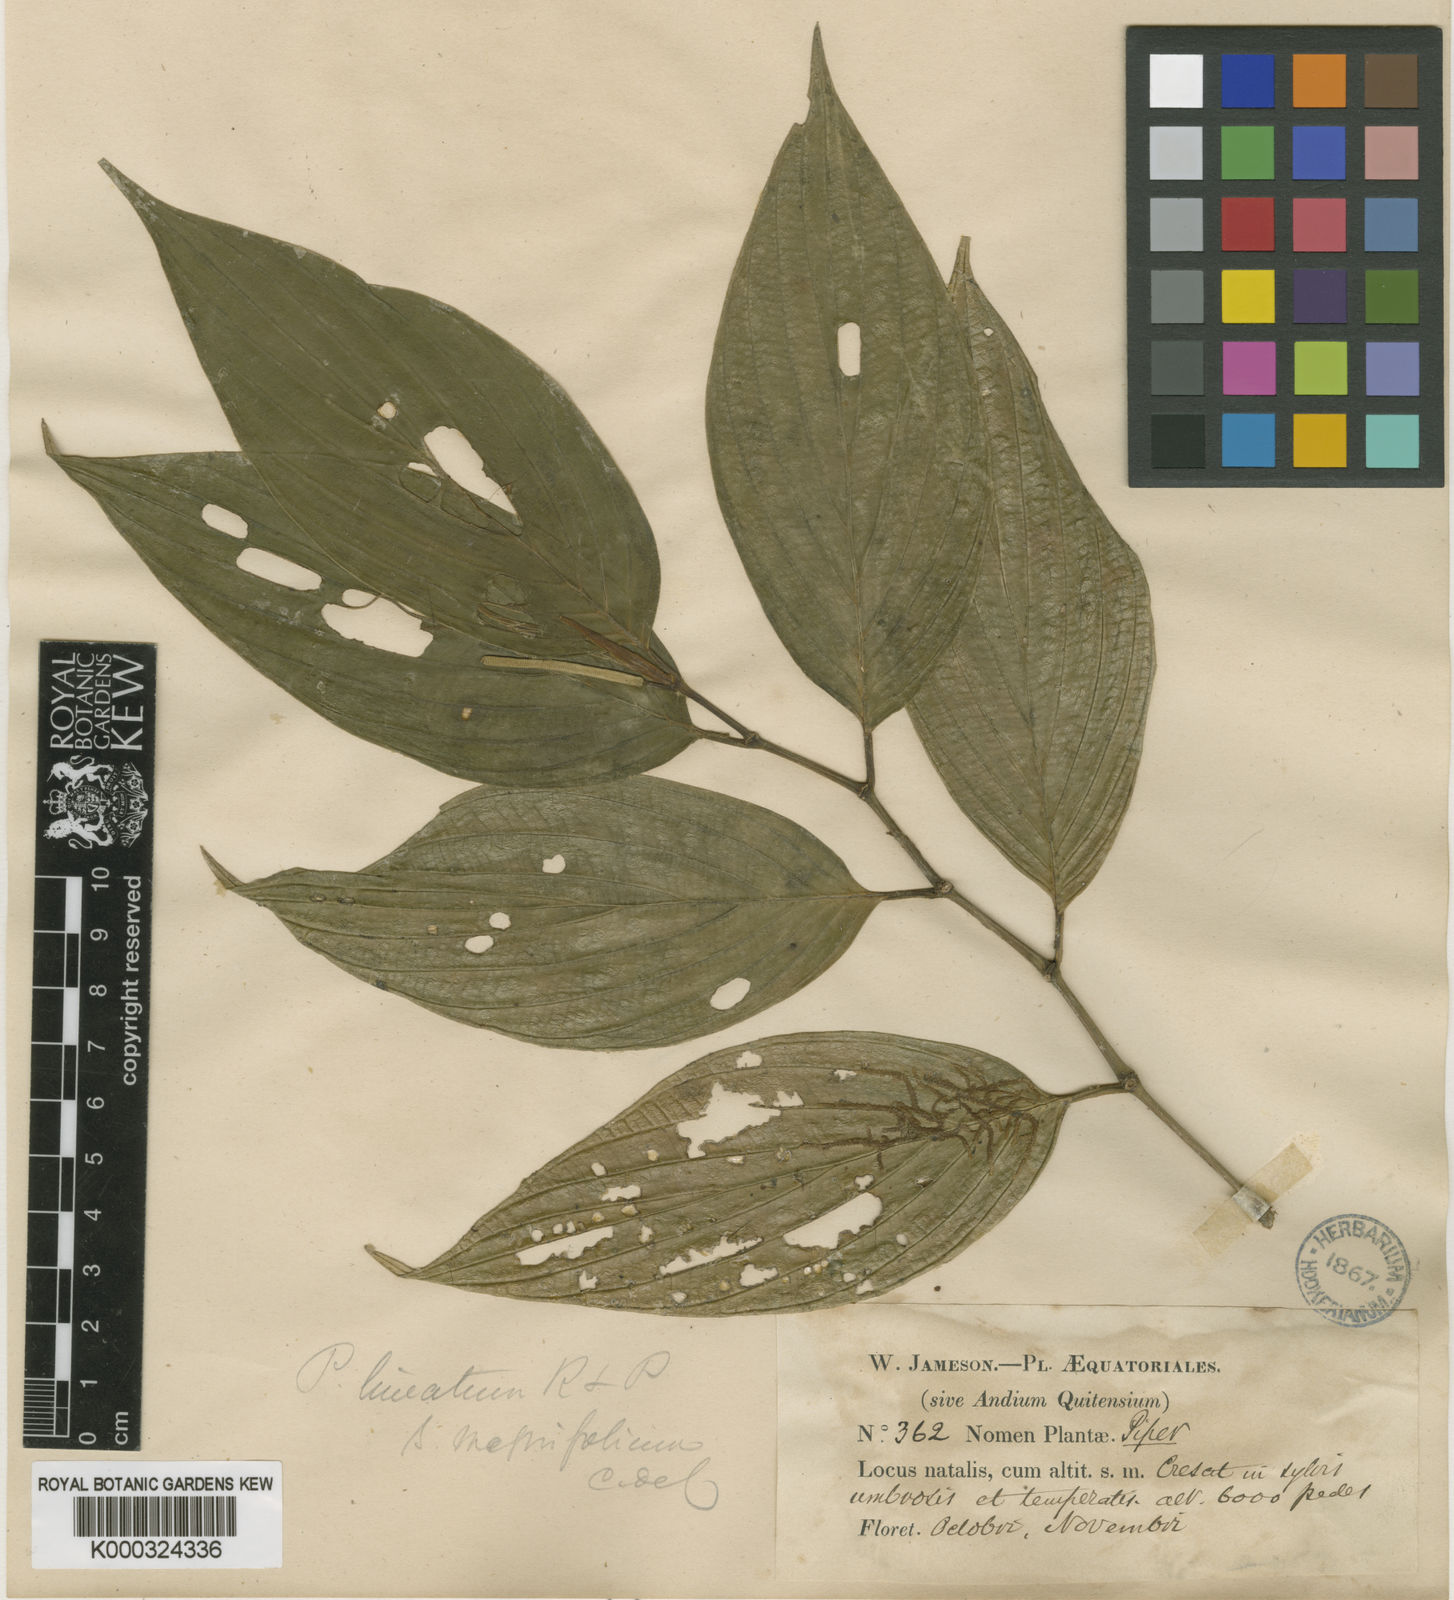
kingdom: Plantae
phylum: Tracheophyta
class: Magnoliopsida
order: Piperales
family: Piperaceae
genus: Piper
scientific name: Piper lineatum
